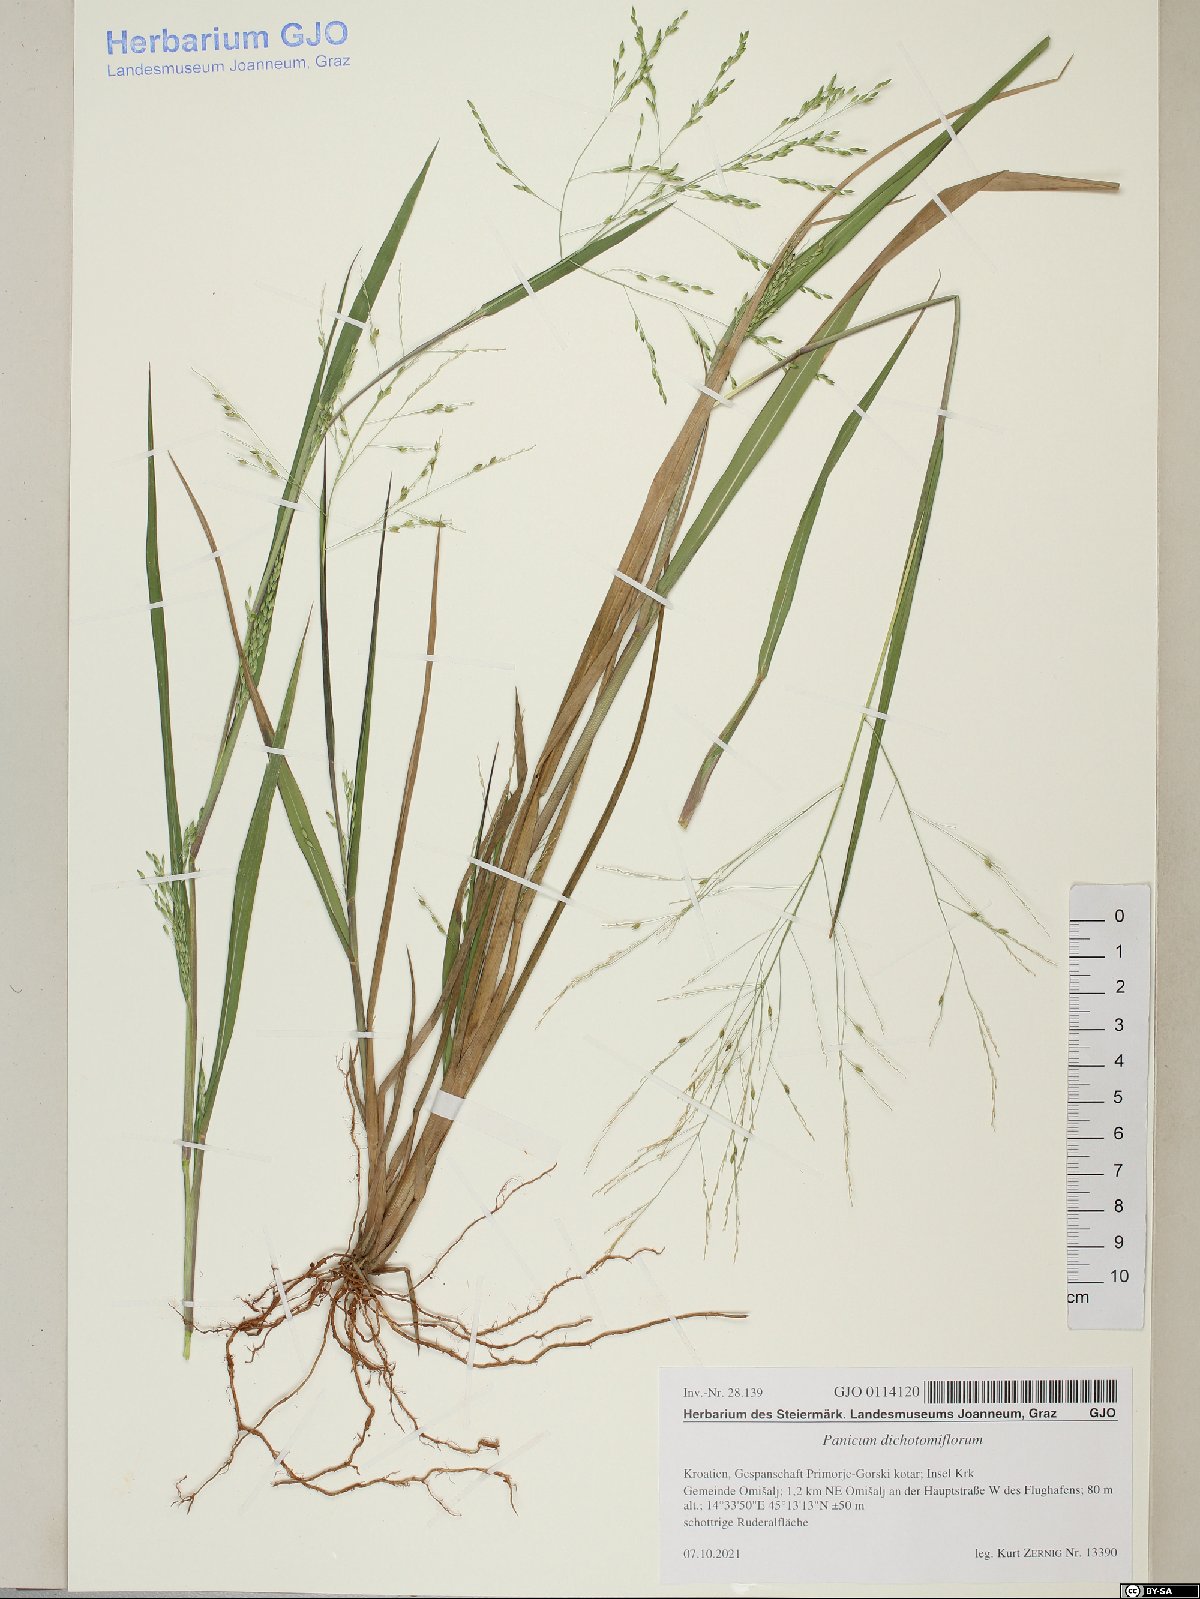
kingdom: Plantae
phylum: Tracheophyta
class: Liliopsida
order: Poales
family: Poaceae
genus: Panicum
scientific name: Panicum dichotomiflorum
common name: Autumn millet
